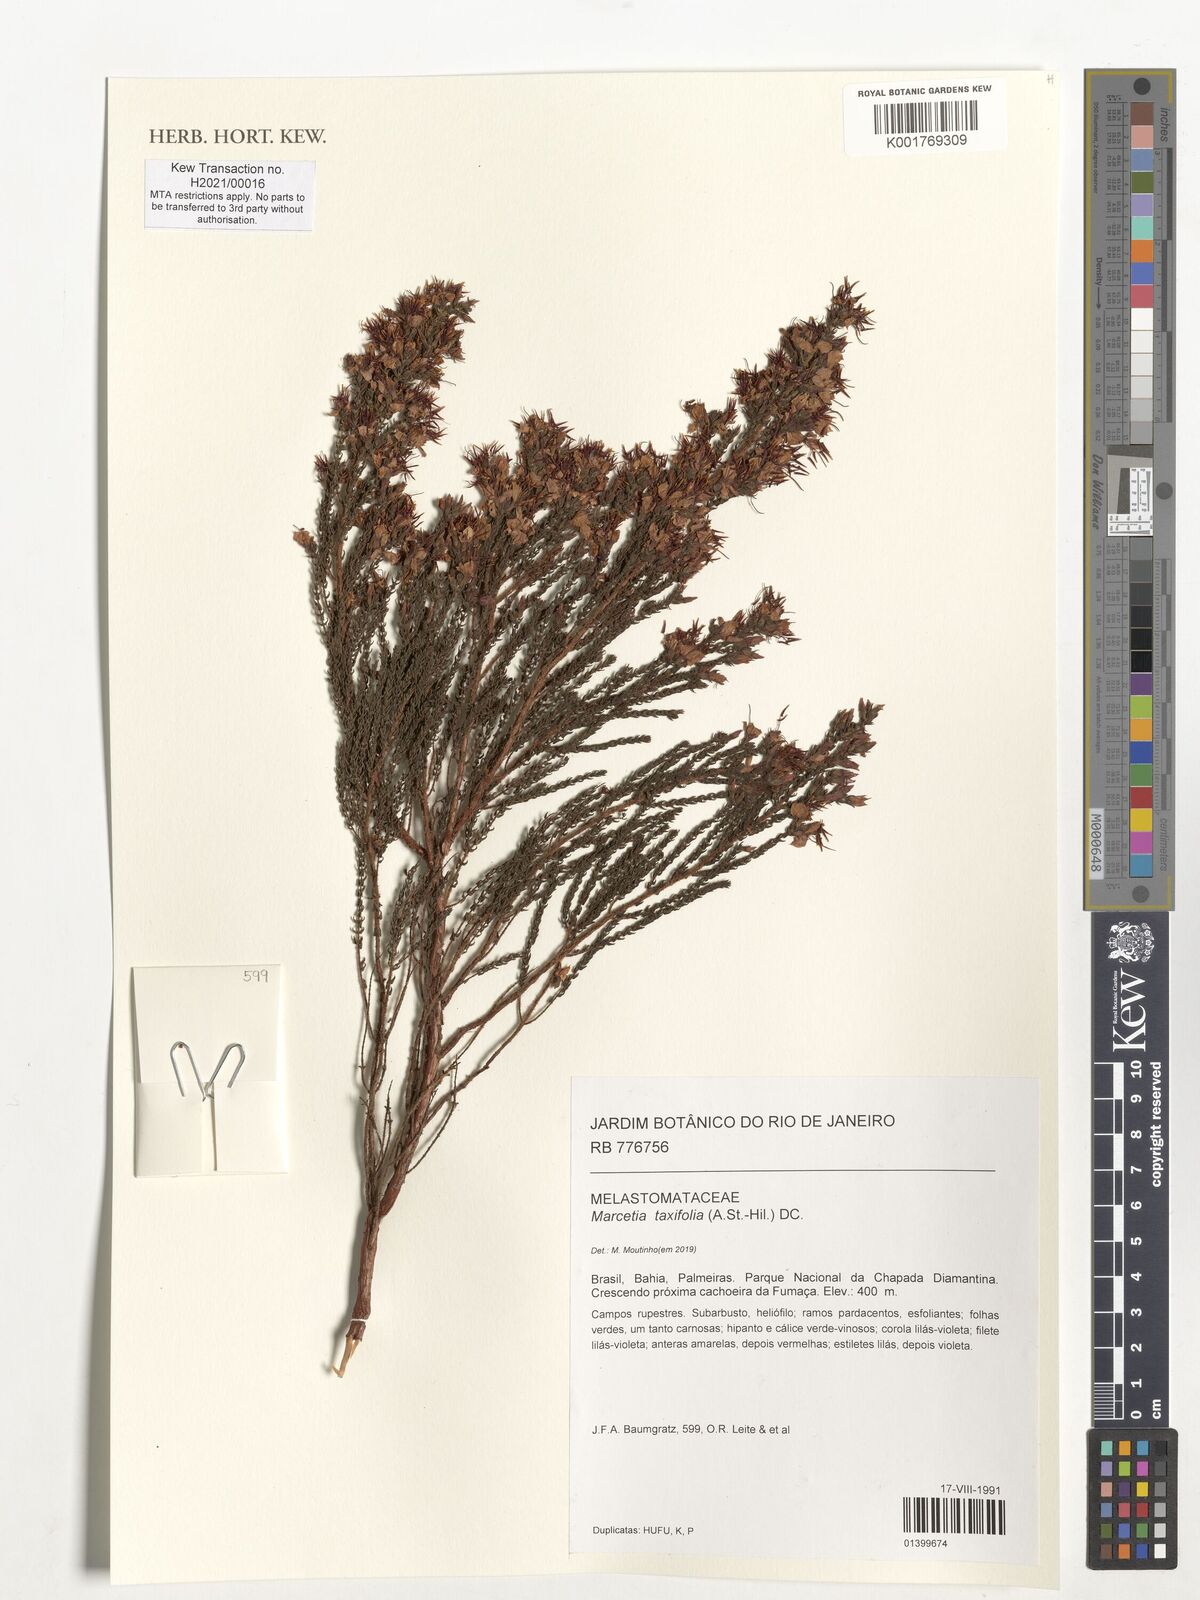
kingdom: Plantae
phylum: Tracheophyta
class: Magnoliopsida
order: Myrtales
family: Melastomataceae
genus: Marcetia
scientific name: Marcetia taxifolia
